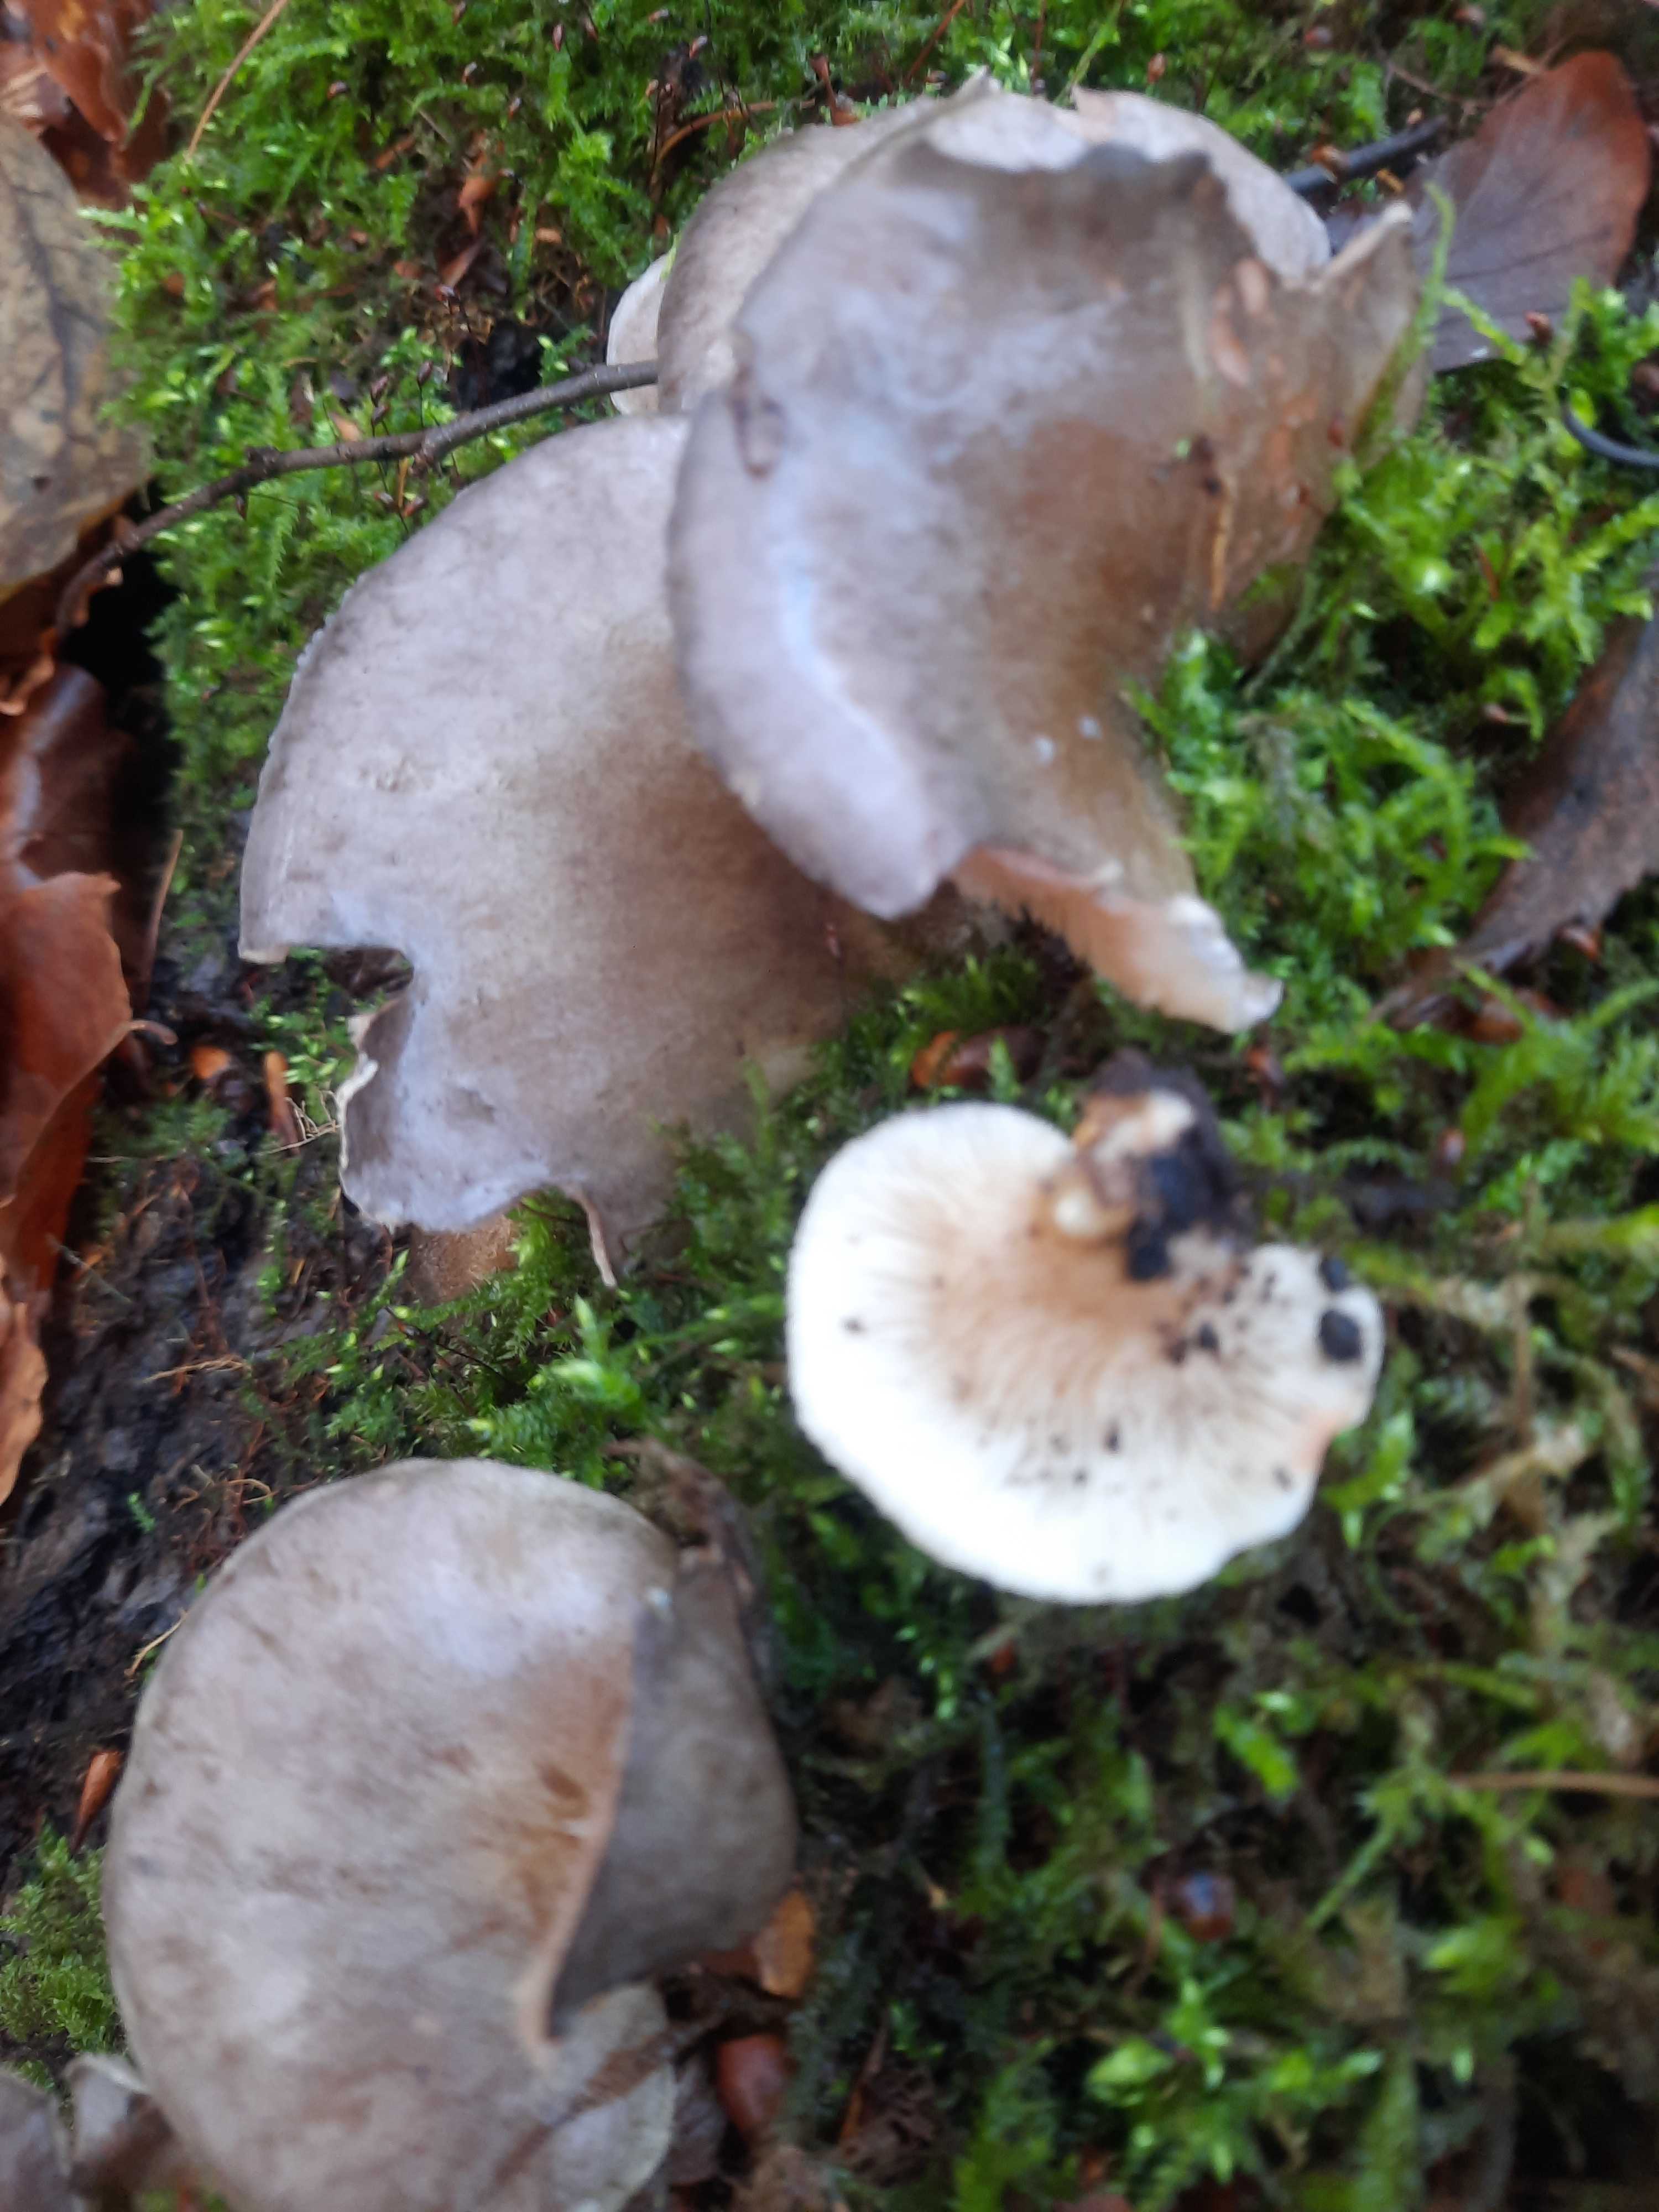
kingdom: Fungi
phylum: Basidiomycota
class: Agaricomycetes
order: Agaricales
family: Sarcomyxaceae
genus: Sarcomyxa
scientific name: Sarcomyxa serotina
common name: gummihat
